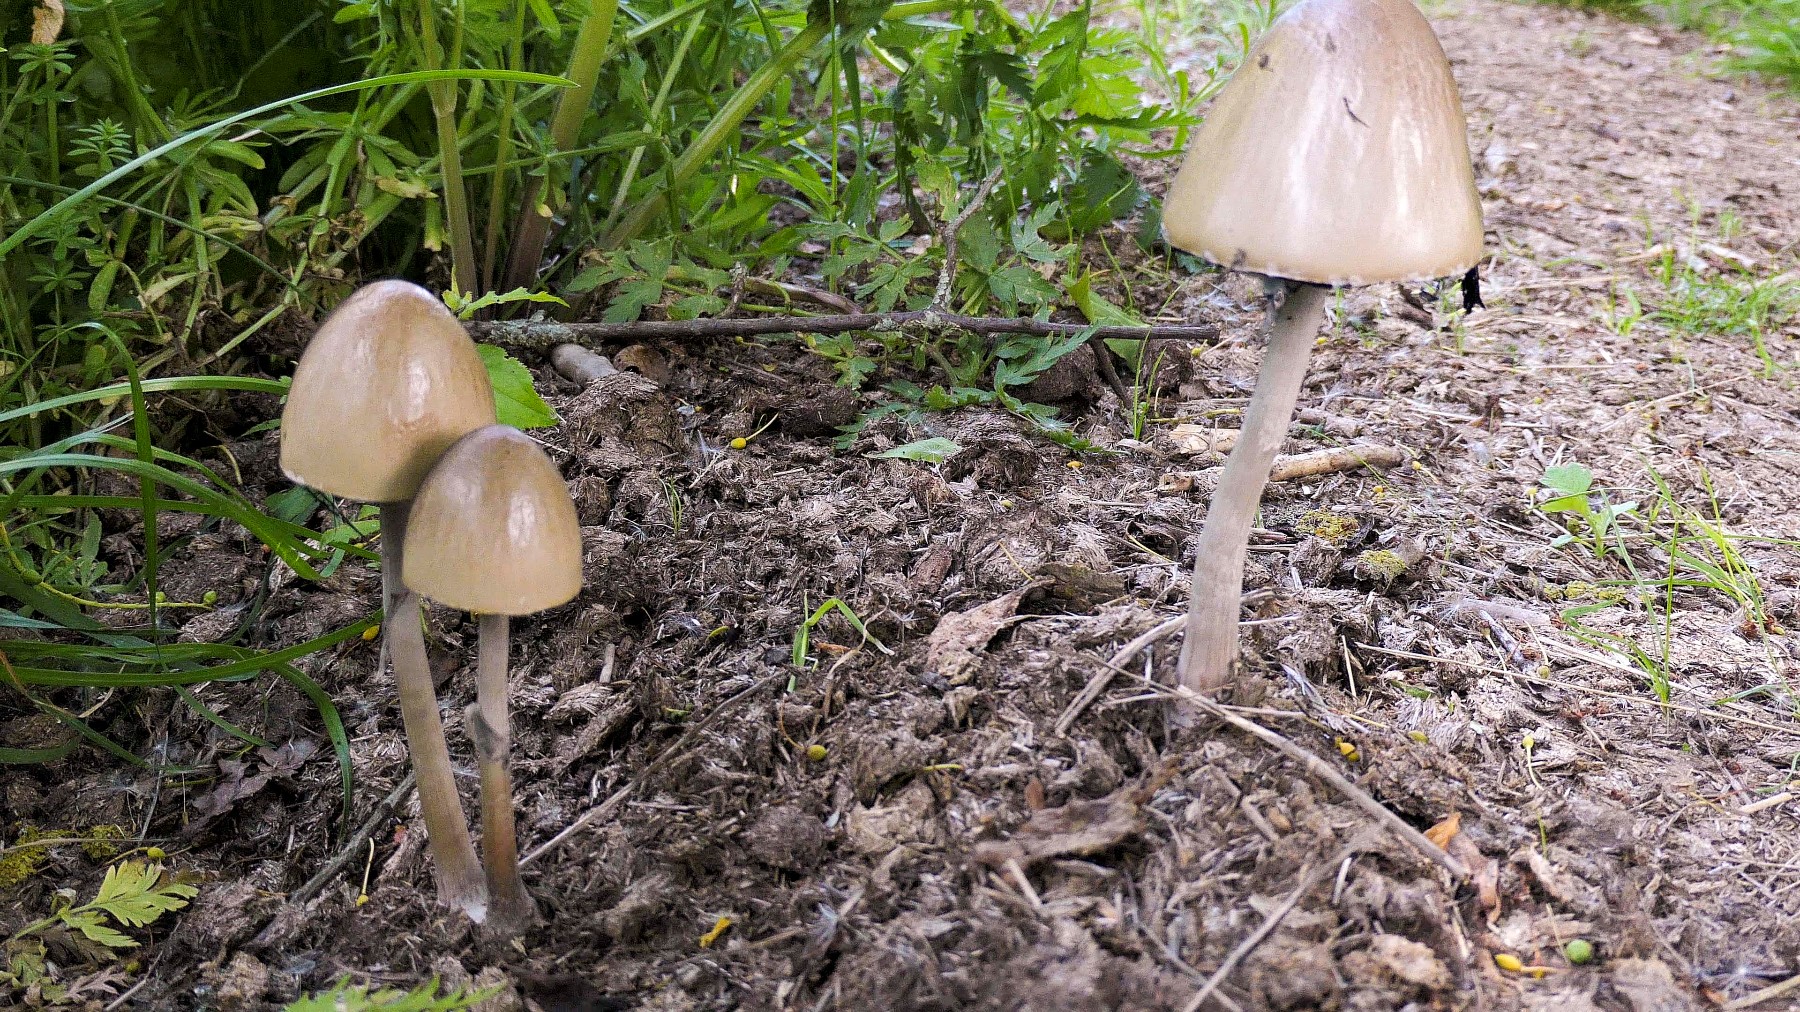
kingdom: Fungi
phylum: Basidiomycota
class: Agaricomycetes
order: Agaricales
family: Bolbitiaceae
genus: Panaeolus
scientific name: Panaeolus semiovatus
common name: ring-glanshat
